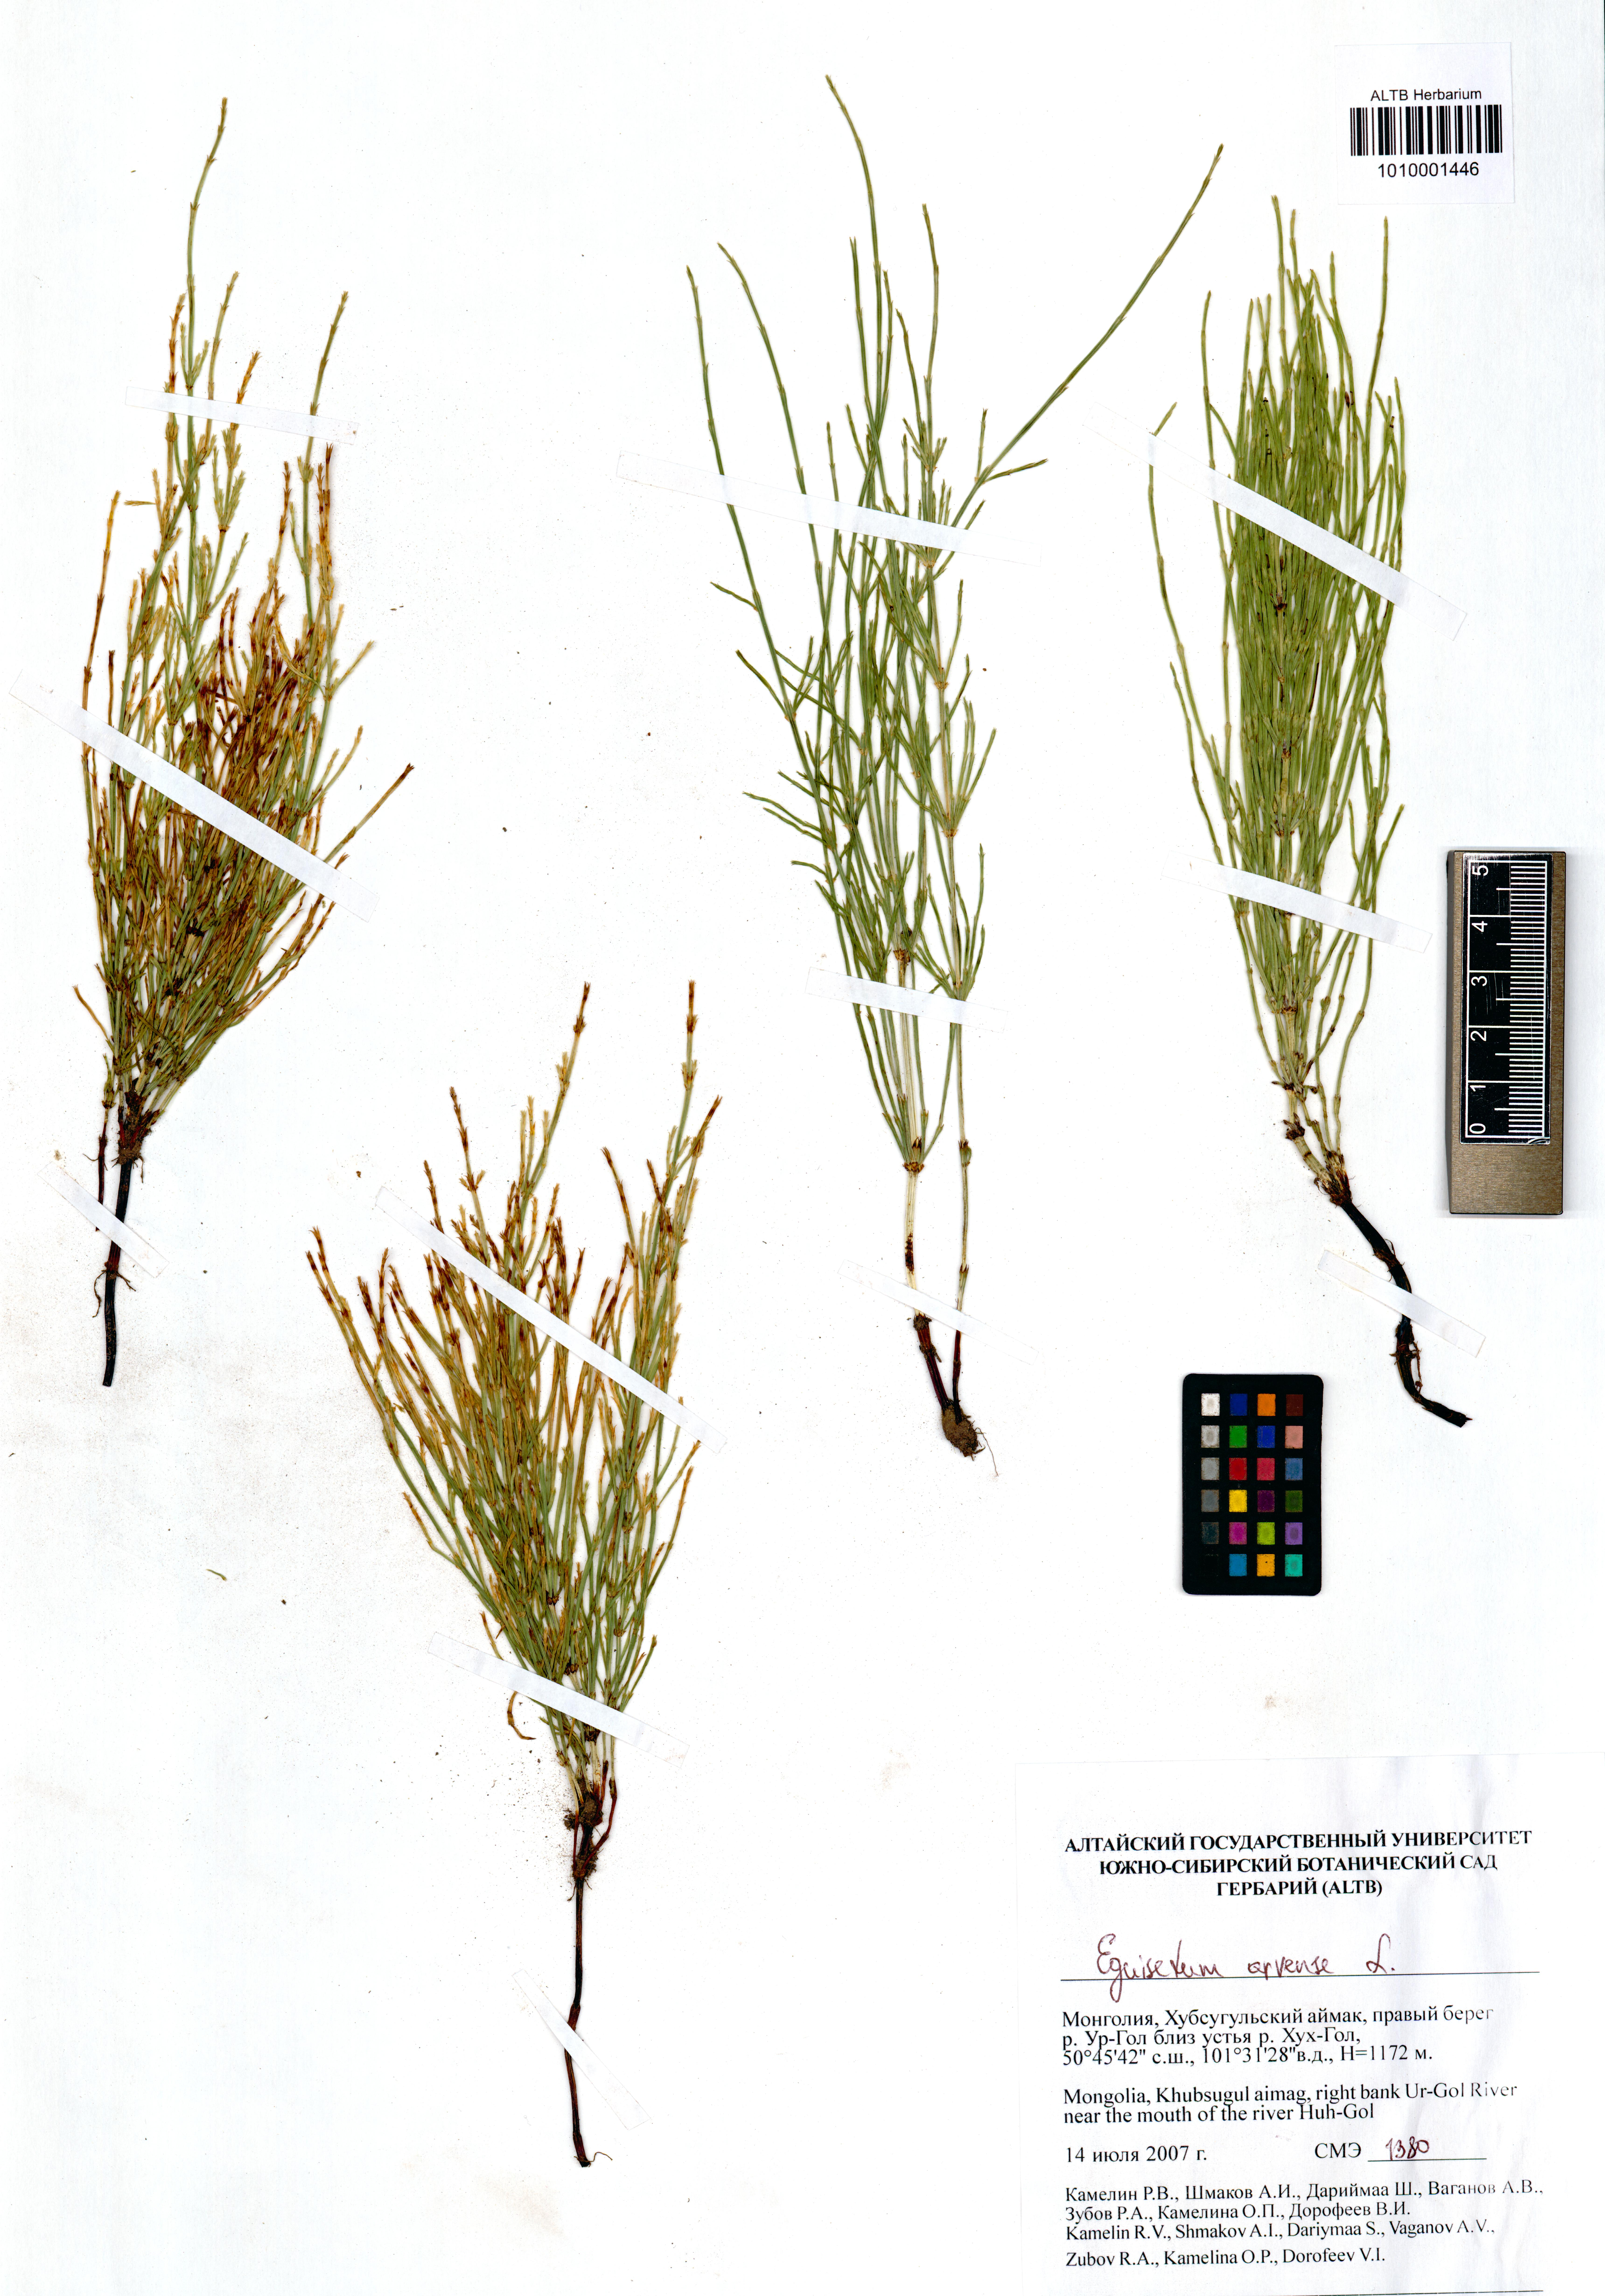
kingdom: Plantae
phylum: Tracheophyta
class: Polypodiopsida
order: Equisetales
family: Equisetaceae
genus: Equisetum
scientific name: Equisetum arvense
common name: Field horsetail
